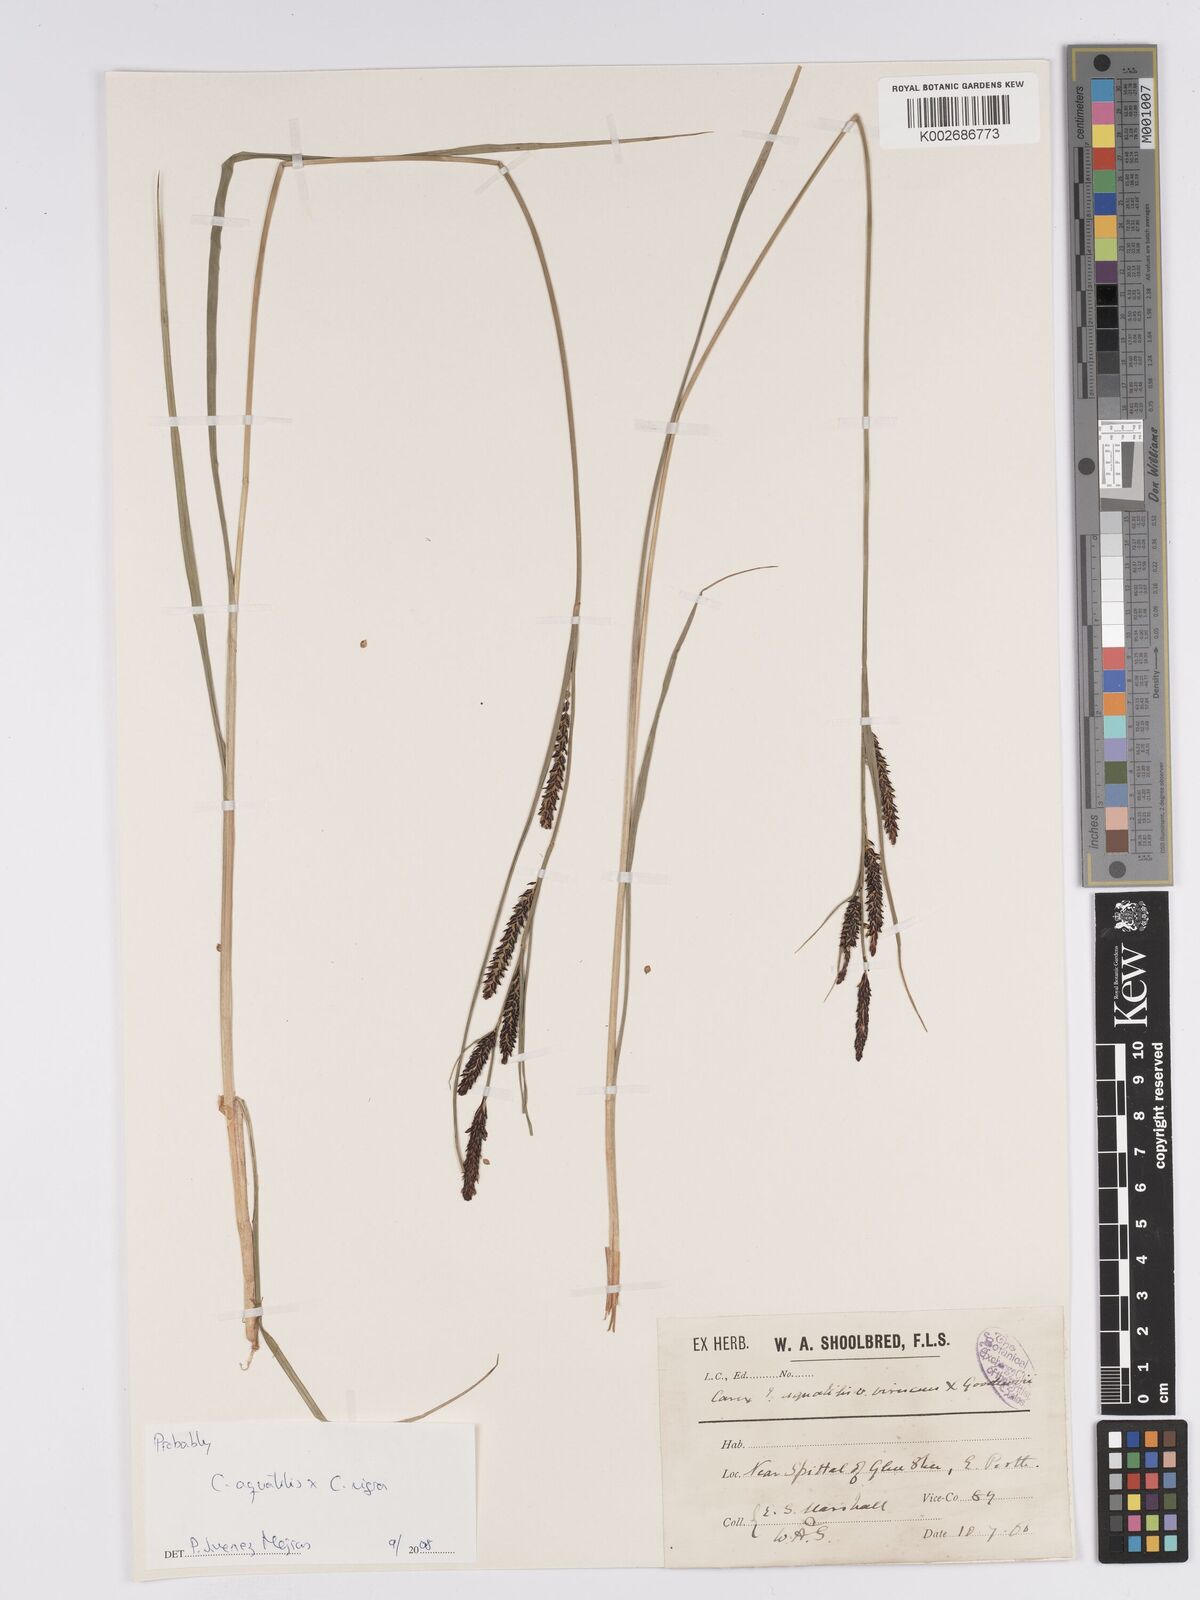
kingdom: Plantae
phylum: Tracheophyta
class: Liliopsida
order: Poales
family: Cyperaceae
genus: Carex
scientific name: Carex microcarpa
